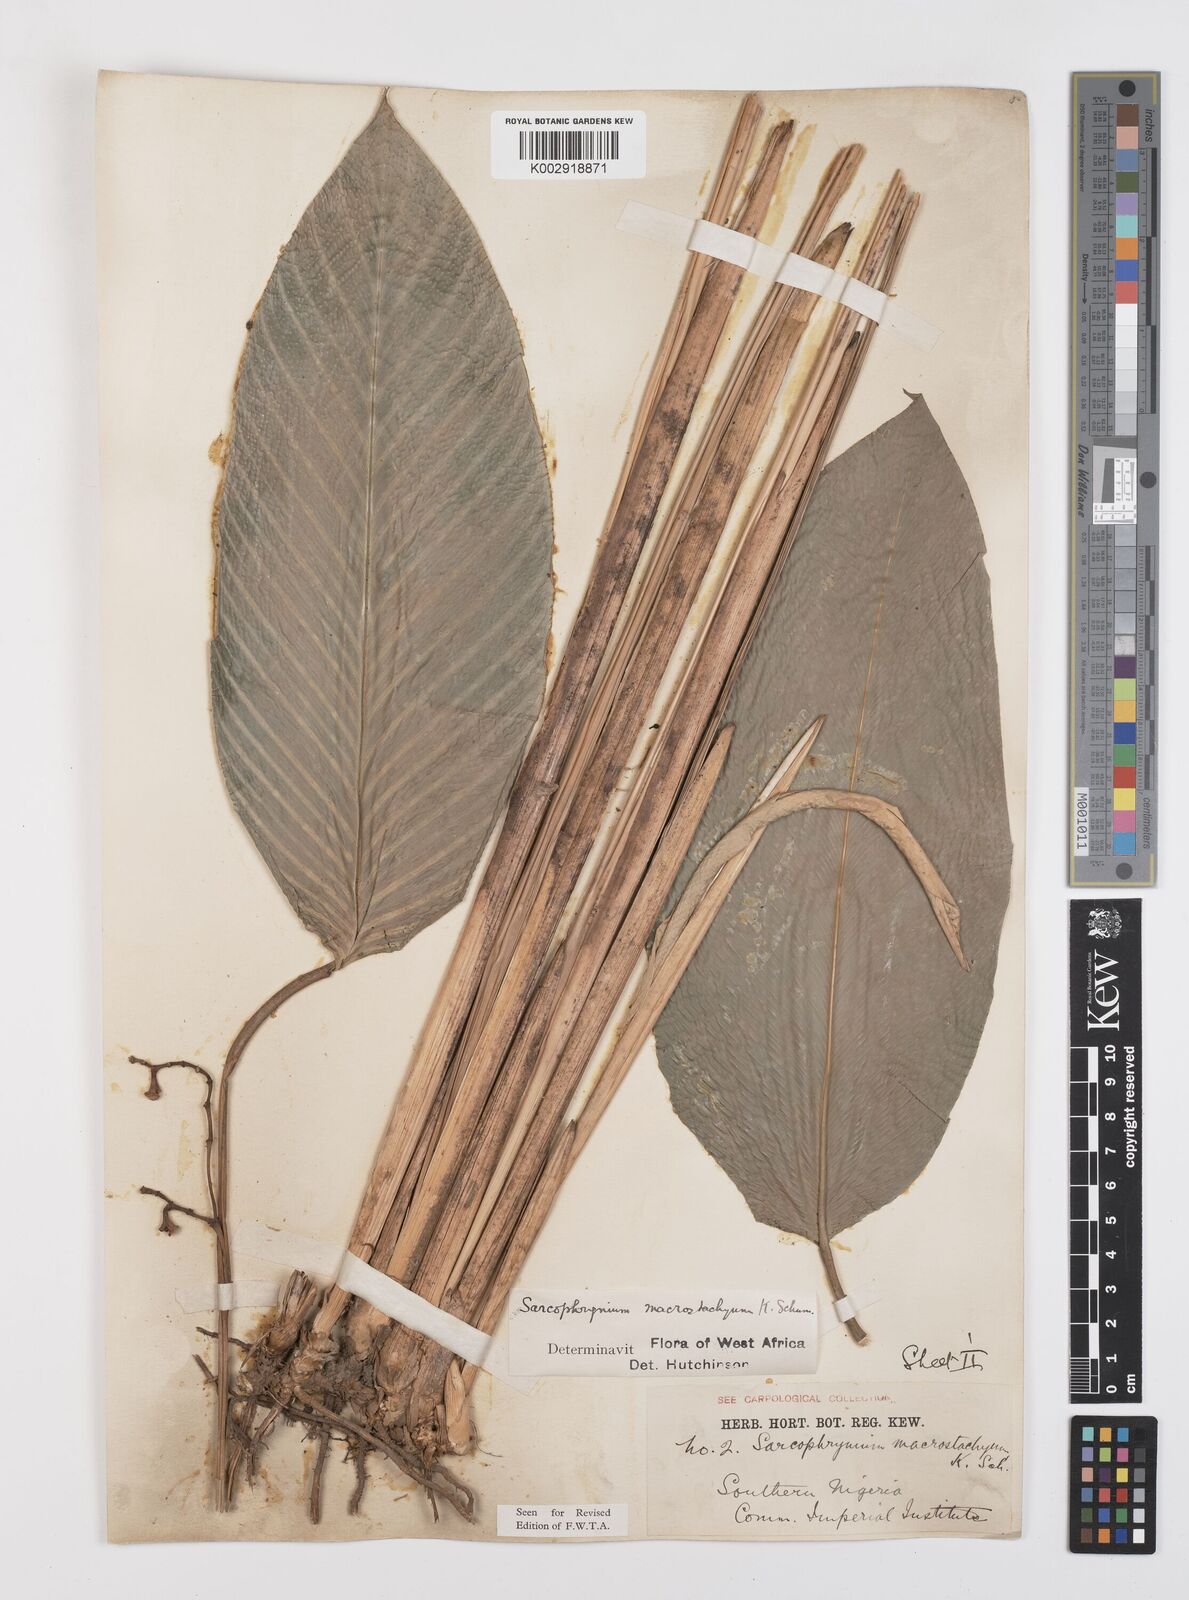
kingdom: Plantae
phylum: Tracheophyta
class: Liliopsida
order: Zingiberales
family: Marantaceae
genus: Megaphrynium
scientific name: Megaphrynium macrostachyum
